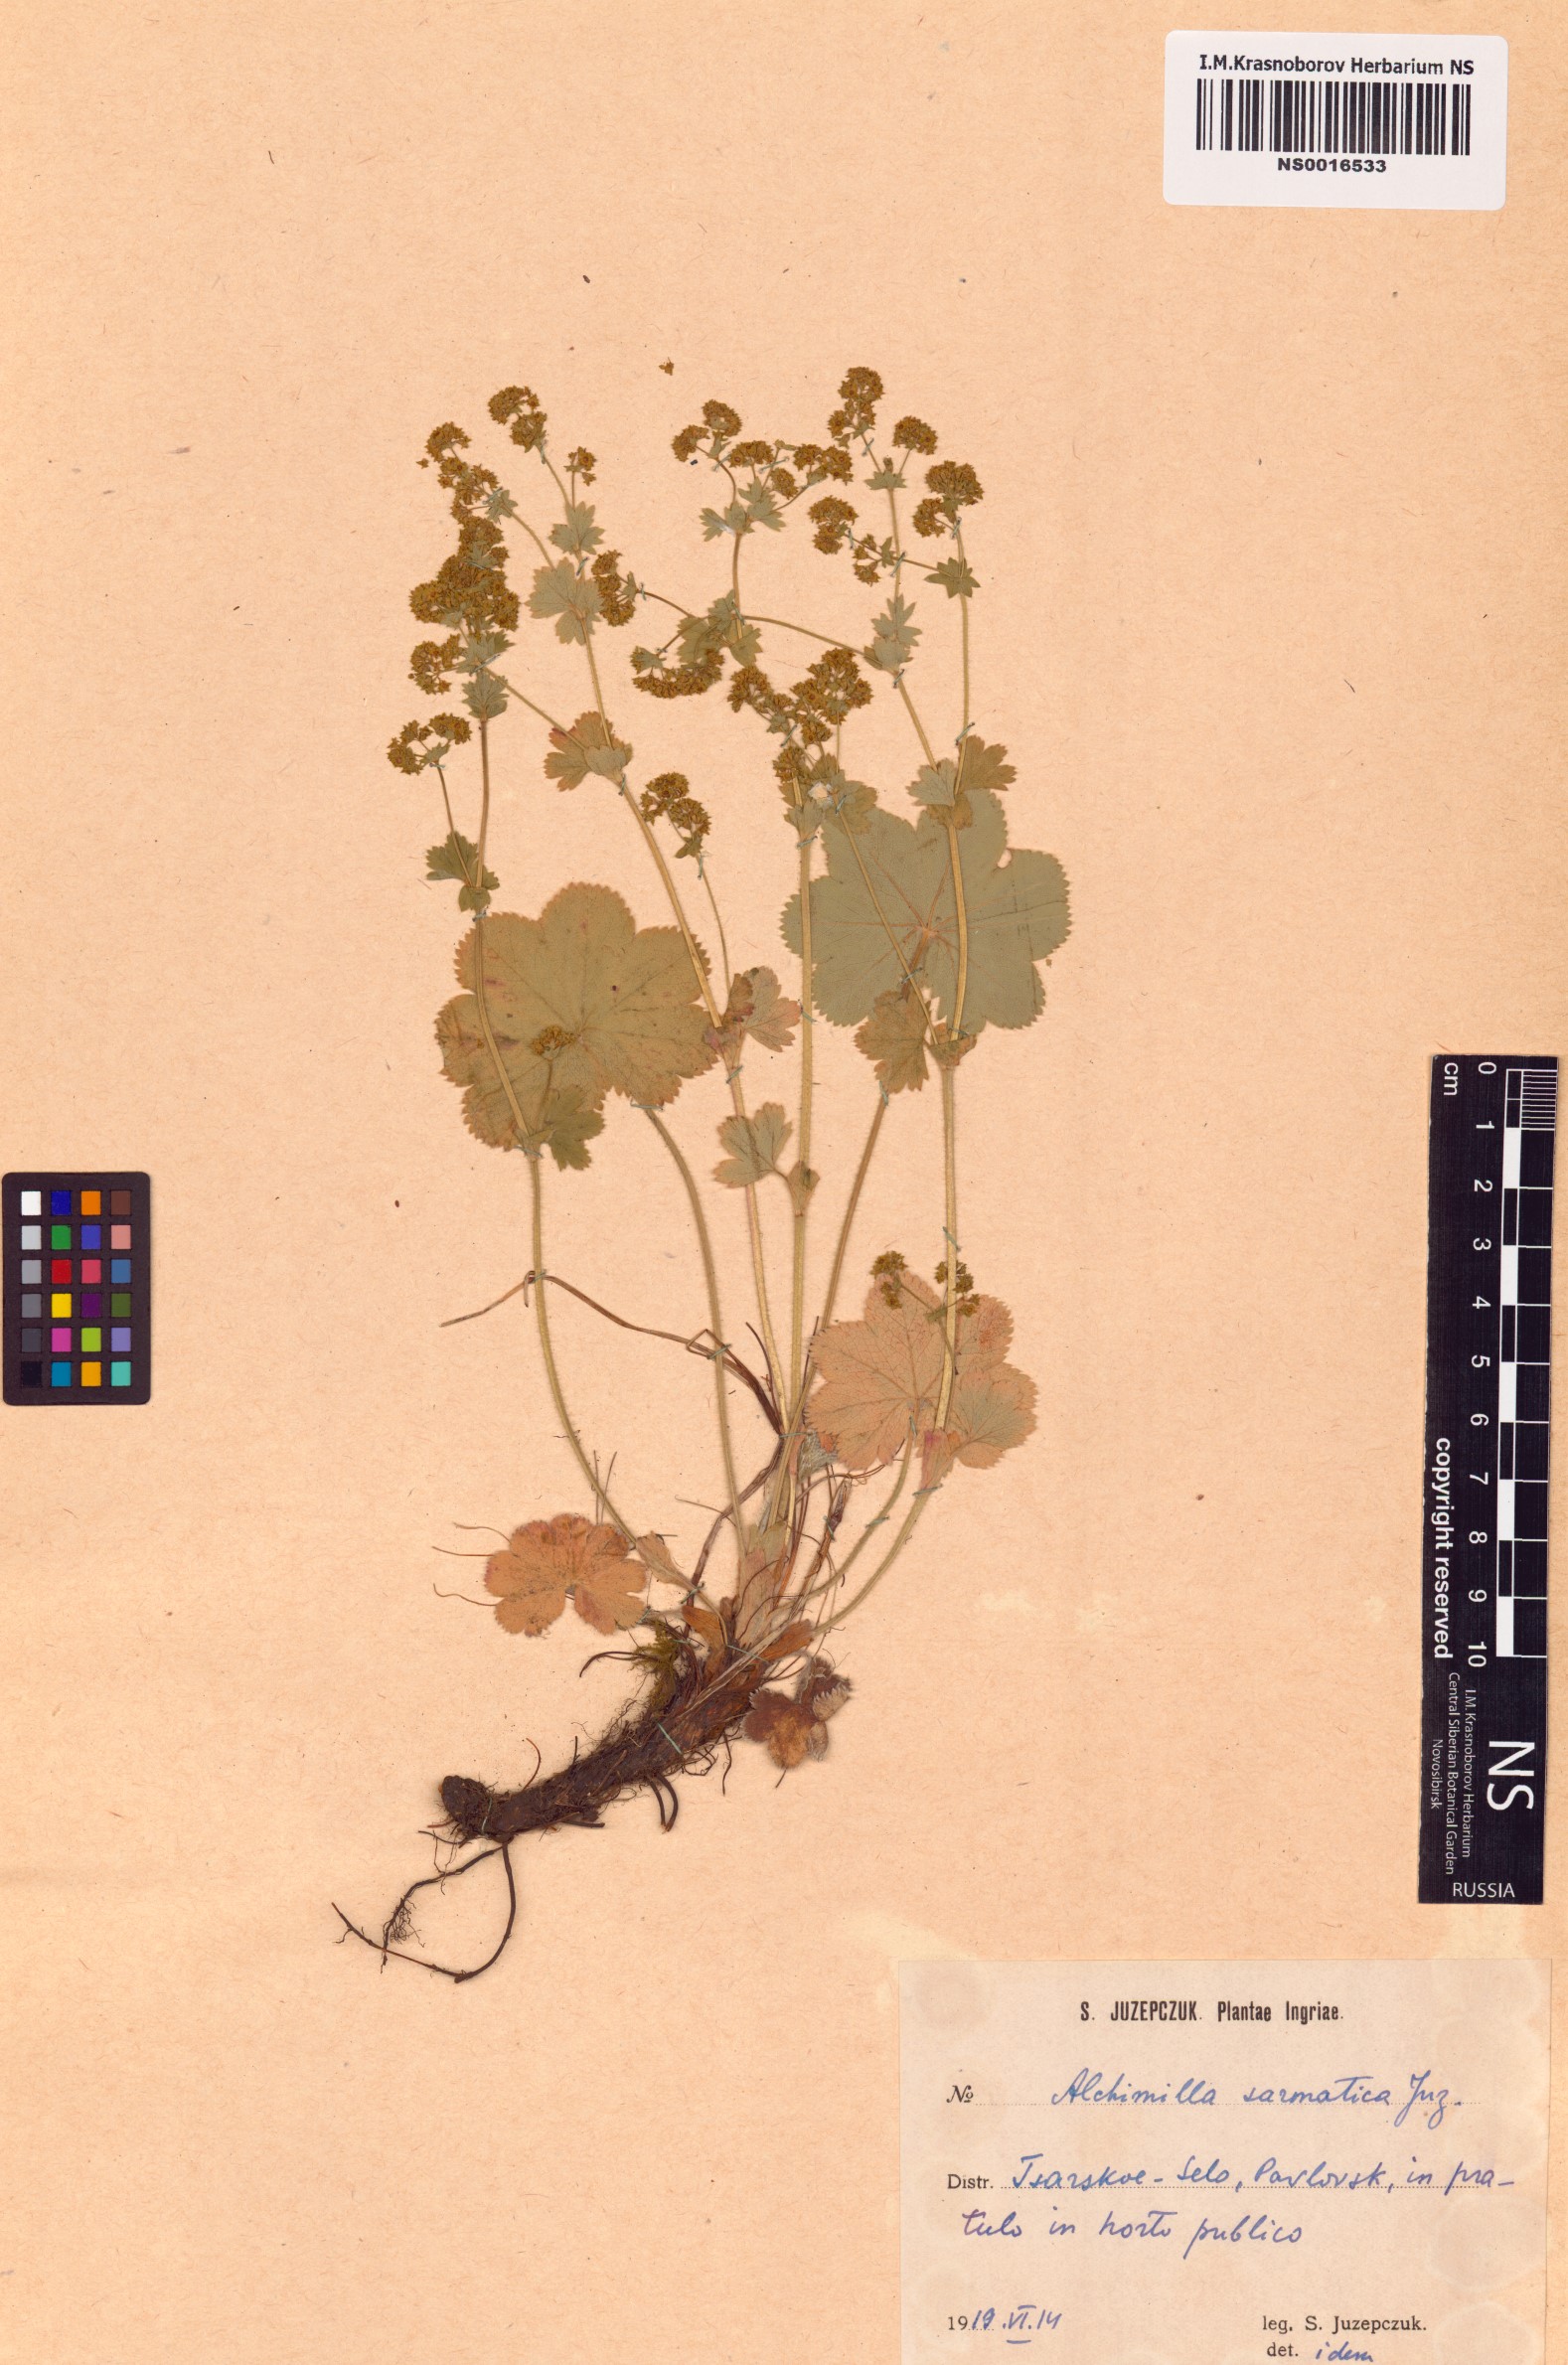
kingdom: Plantae
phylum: Tracheophyta
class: Magnoliopsida
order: Rosales
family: Rosaceae
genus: Alchemilla
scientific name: Alchemilla sarmatica
